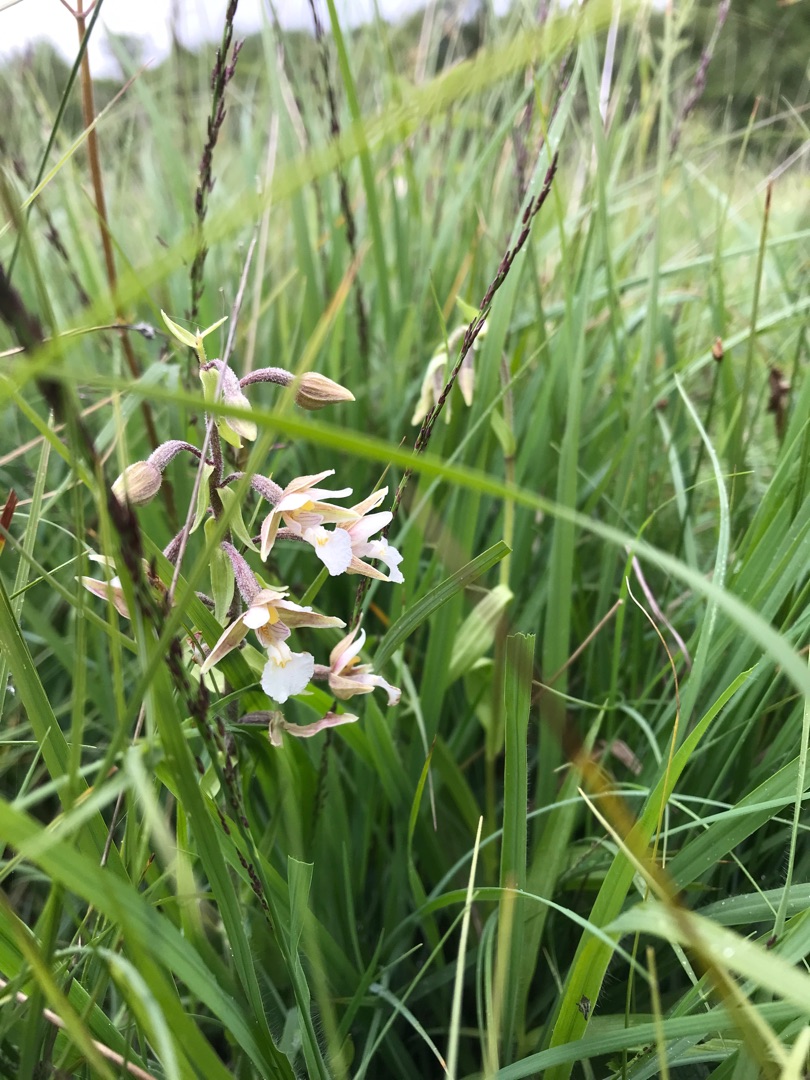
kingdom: Plantae
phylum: Tracheophyta
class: Liliopsida
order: Asparagales
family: Orchidaceae
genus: Epipactis
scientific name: Epipactis palustris
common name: Sump-hullæbe
